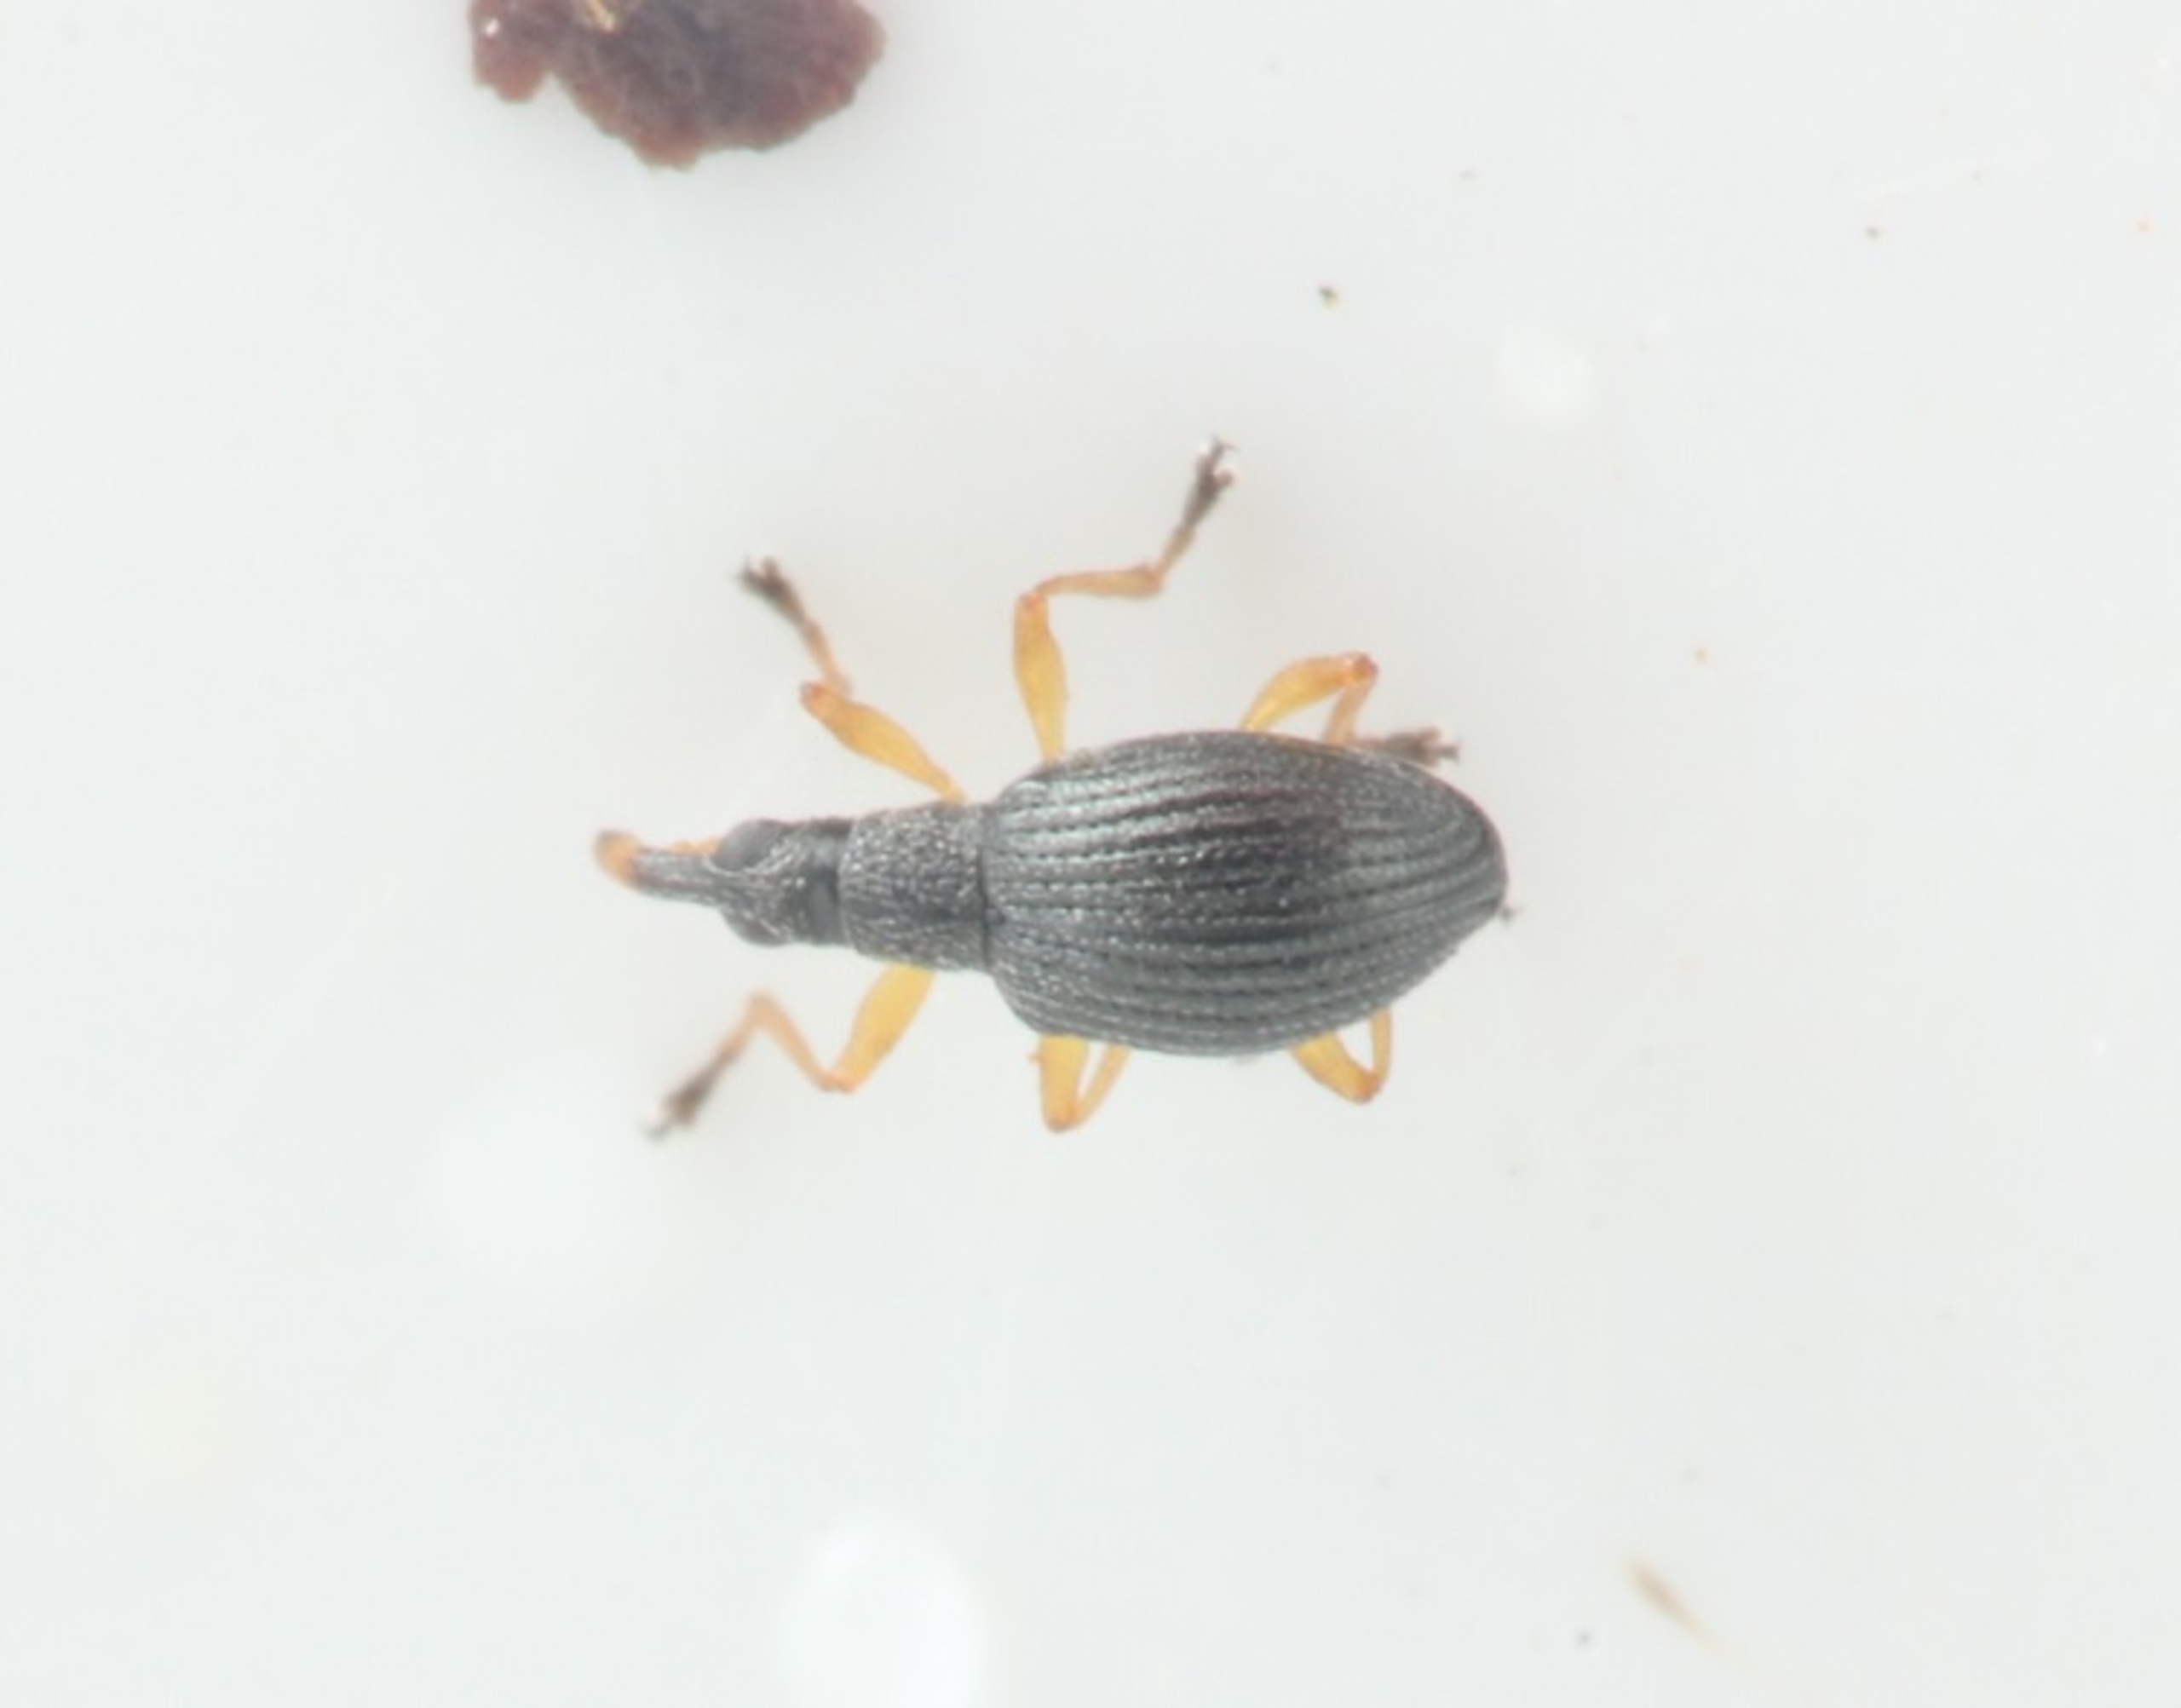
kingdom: Animalia
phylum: Arthropoda
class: Insecta
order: Coleoptera
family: Apionidae
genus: Protapion
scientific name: Protapion nigritarse
